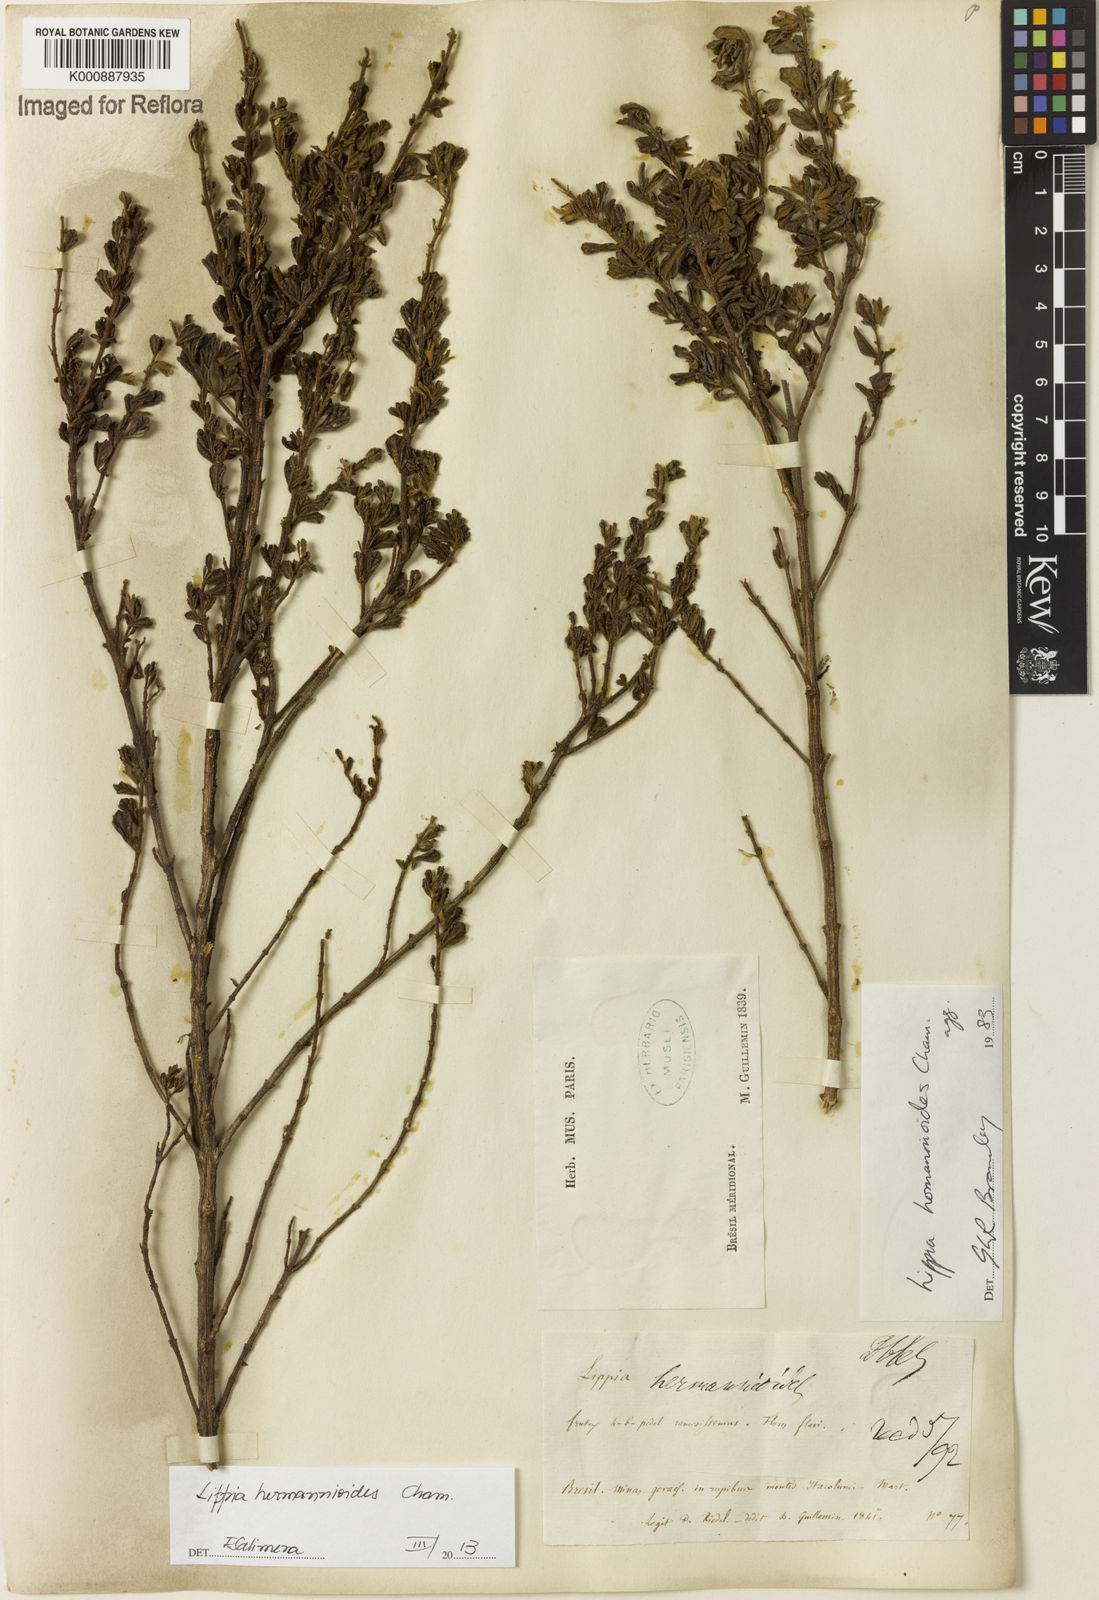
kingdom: Plantae
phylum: Tracheophyta
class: Magnoliopsida
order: Lamiales
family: Verbenaceae
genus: Lippia
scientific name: Lippia hermannioides
